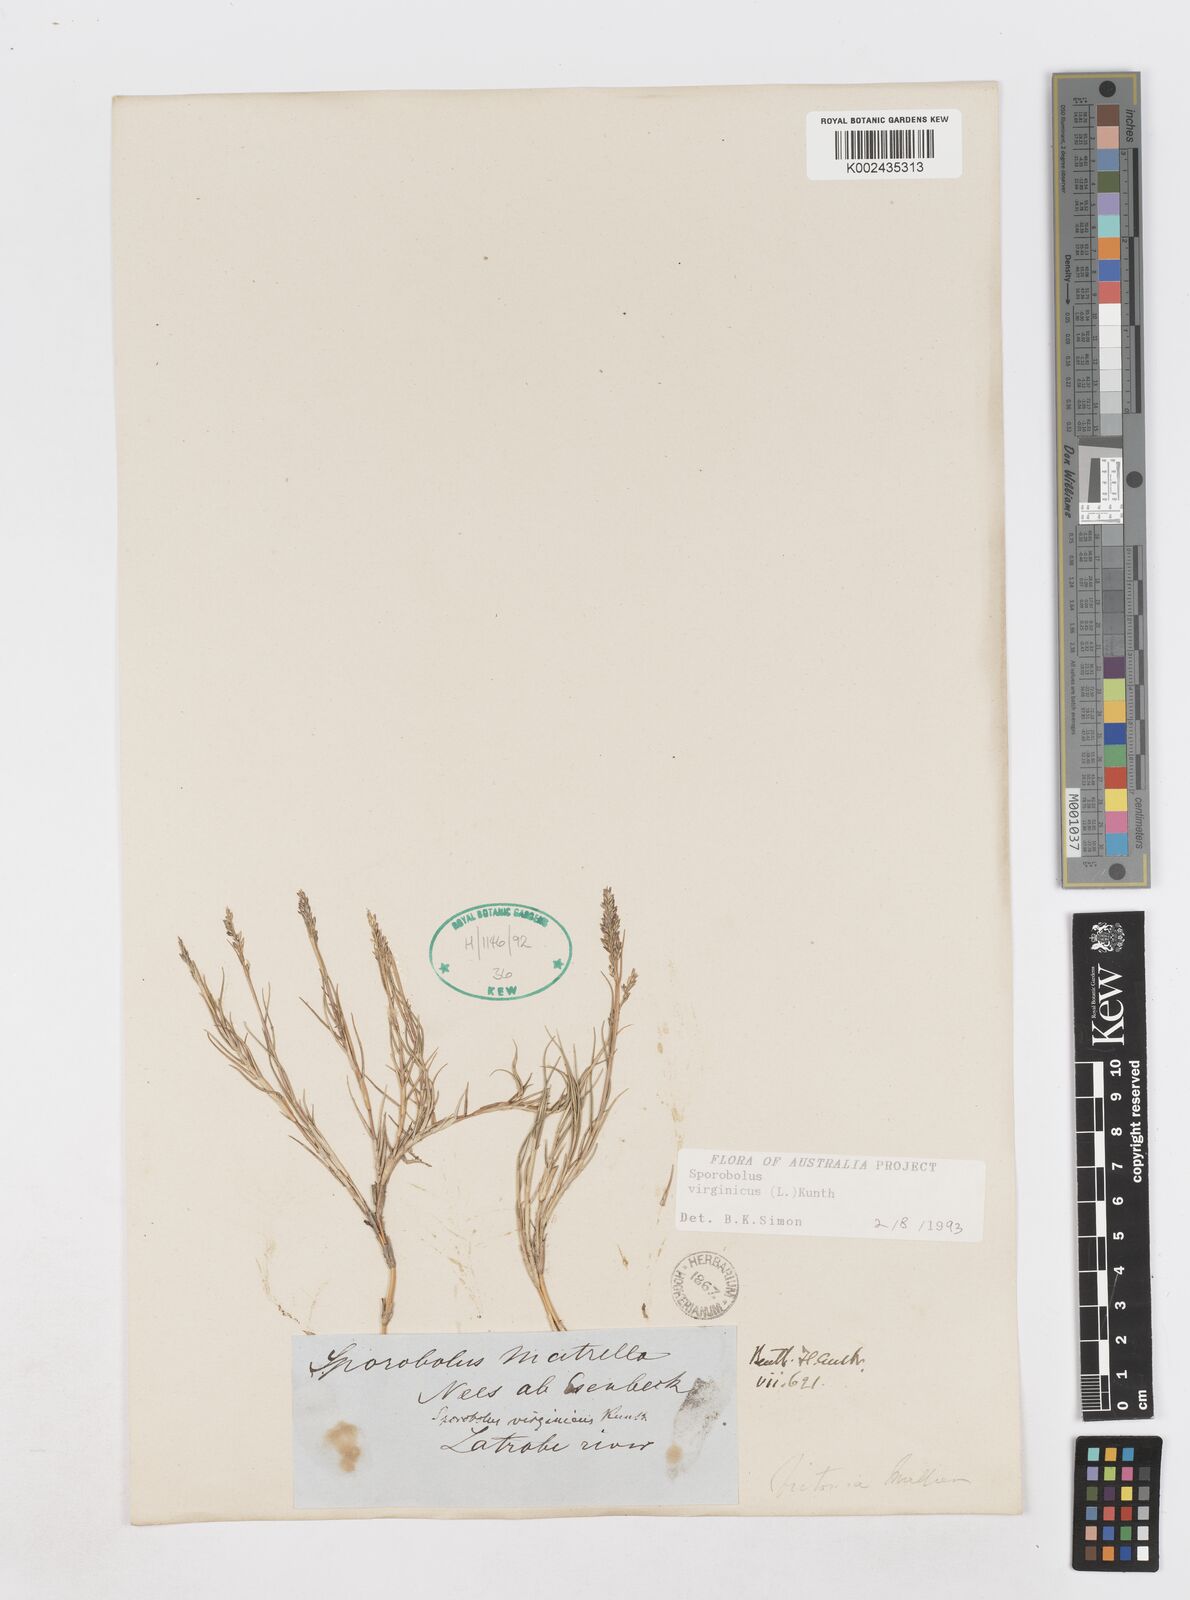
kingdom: Plantae
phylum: Tracheophyta
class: Liliopsida
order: Poales
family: Poaceae
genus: Sporobolus
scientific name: Sporobolus virginicus
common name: Beach dropseed
